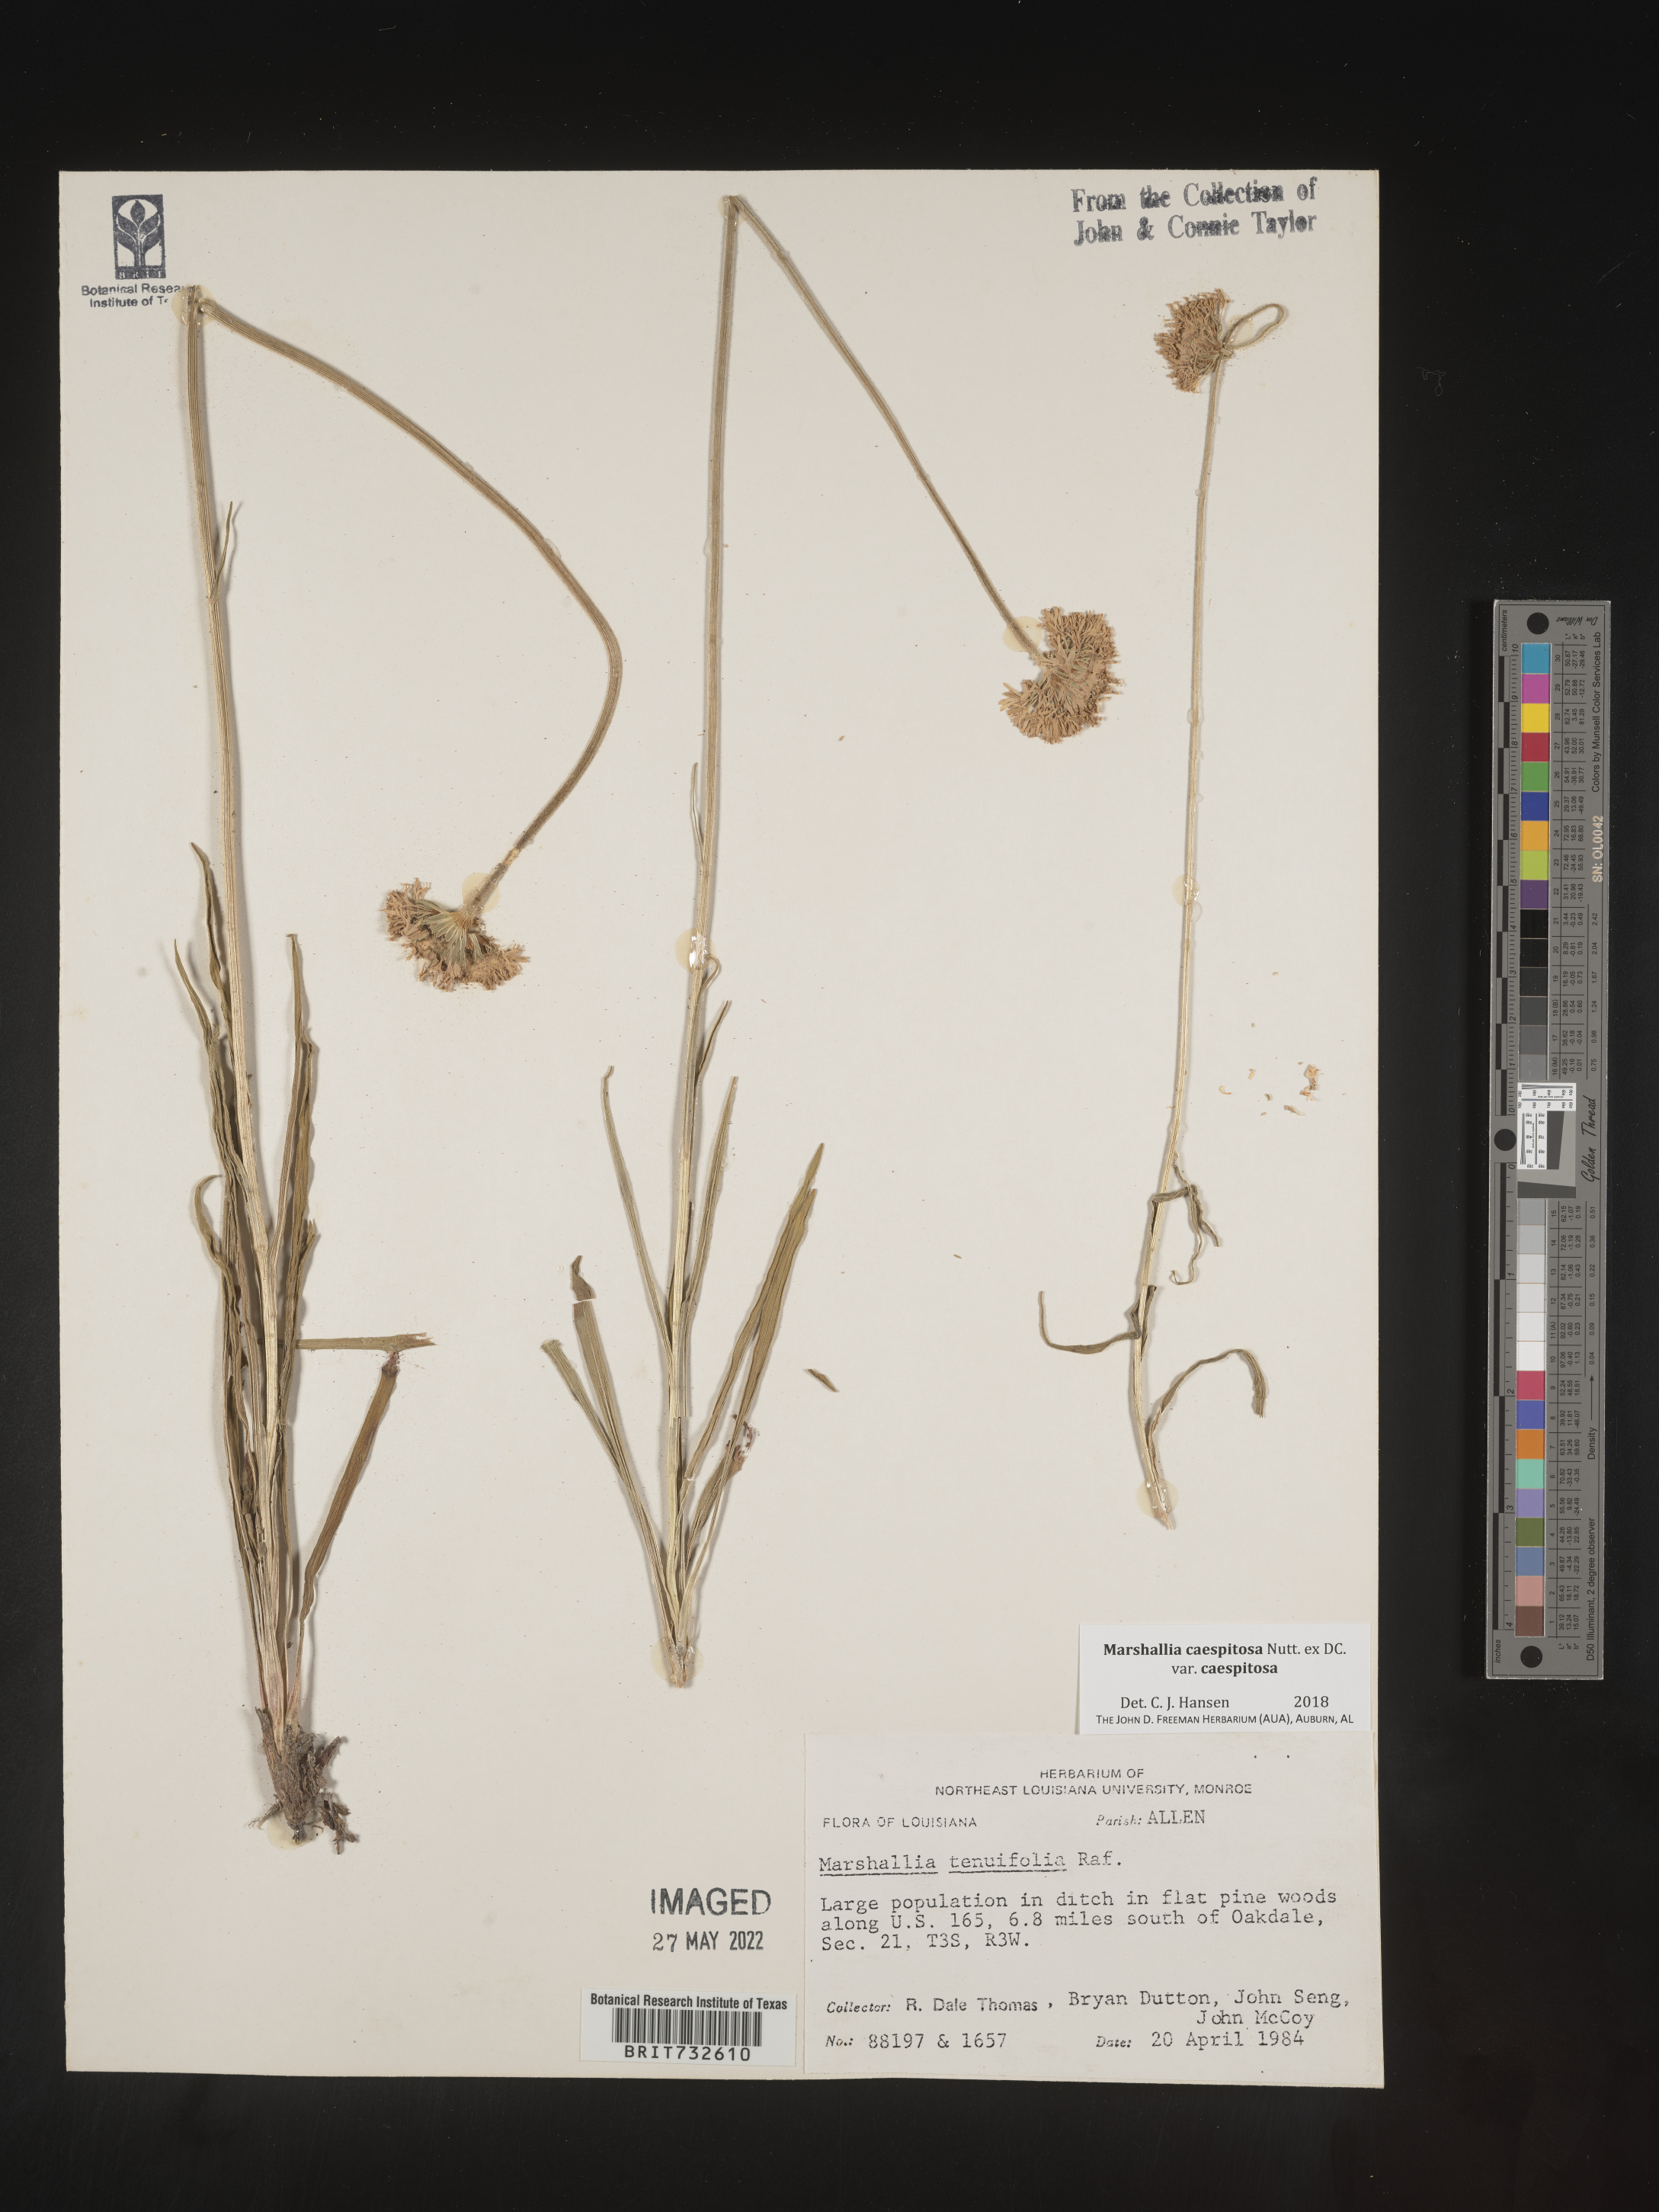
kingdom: Plantae
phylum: Tracheophyta
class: Magnoliopsida
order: Asterales
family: Asteraceae
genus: Marshallia
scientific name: Marshallia caespitosa
